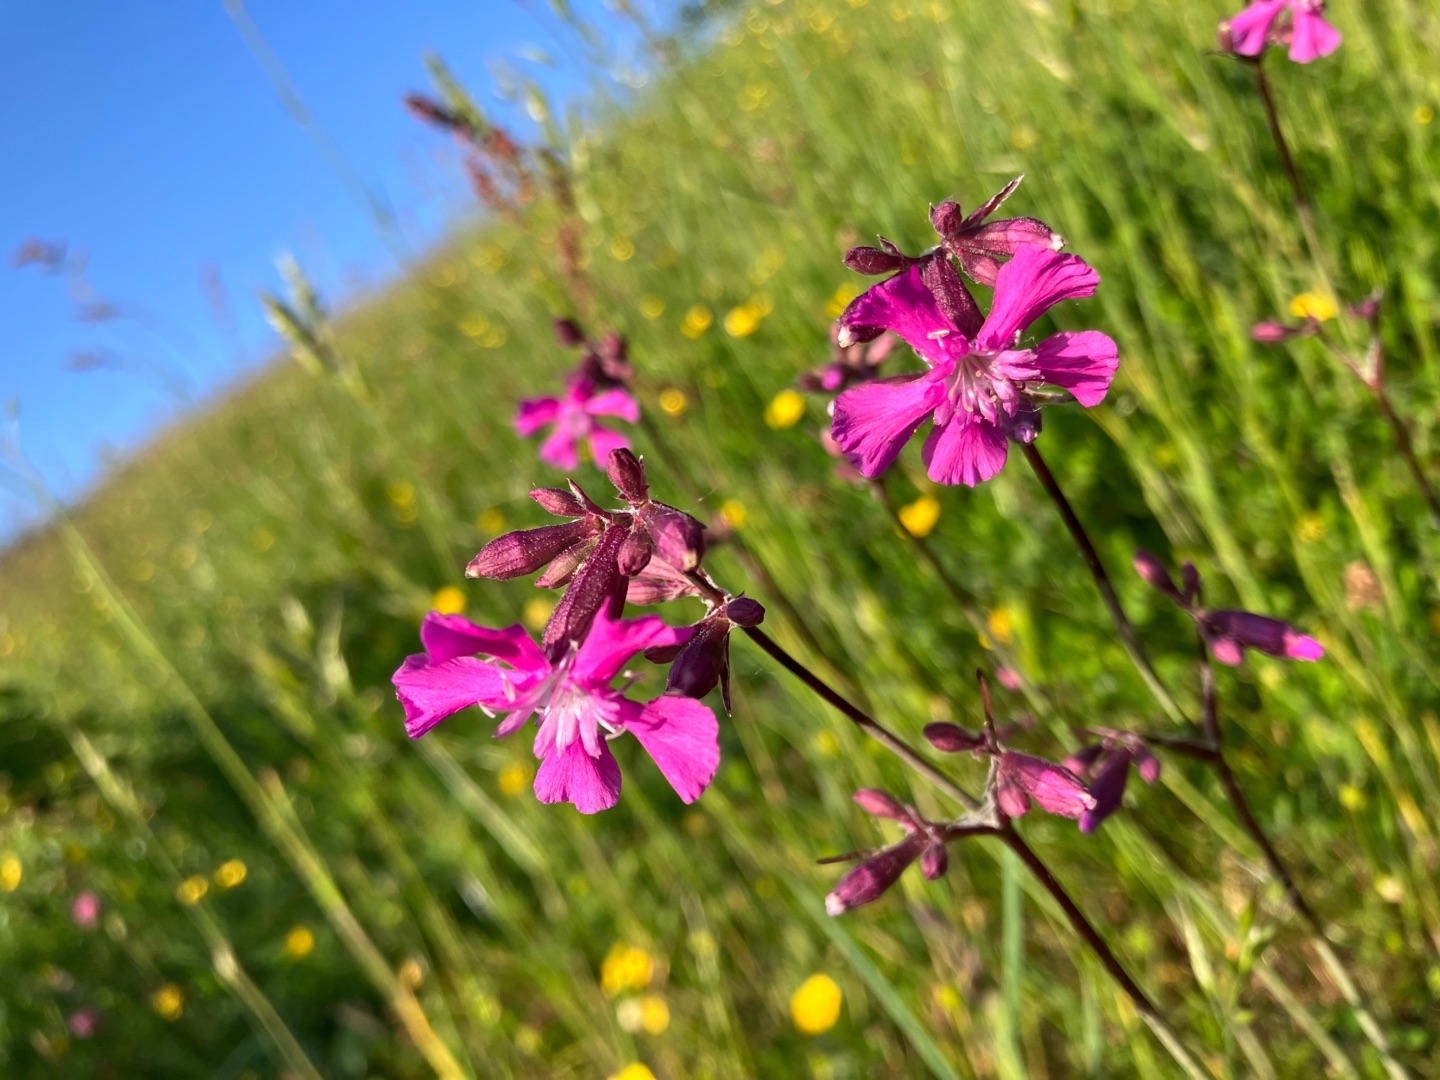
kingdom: Plantae
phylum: Tracheophyta
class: Magnoliopsida
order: Caryophyllales
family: Caryophyllaceae
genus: Viscaria
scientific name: Viscaria vulgaris
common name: Tjærenellike
